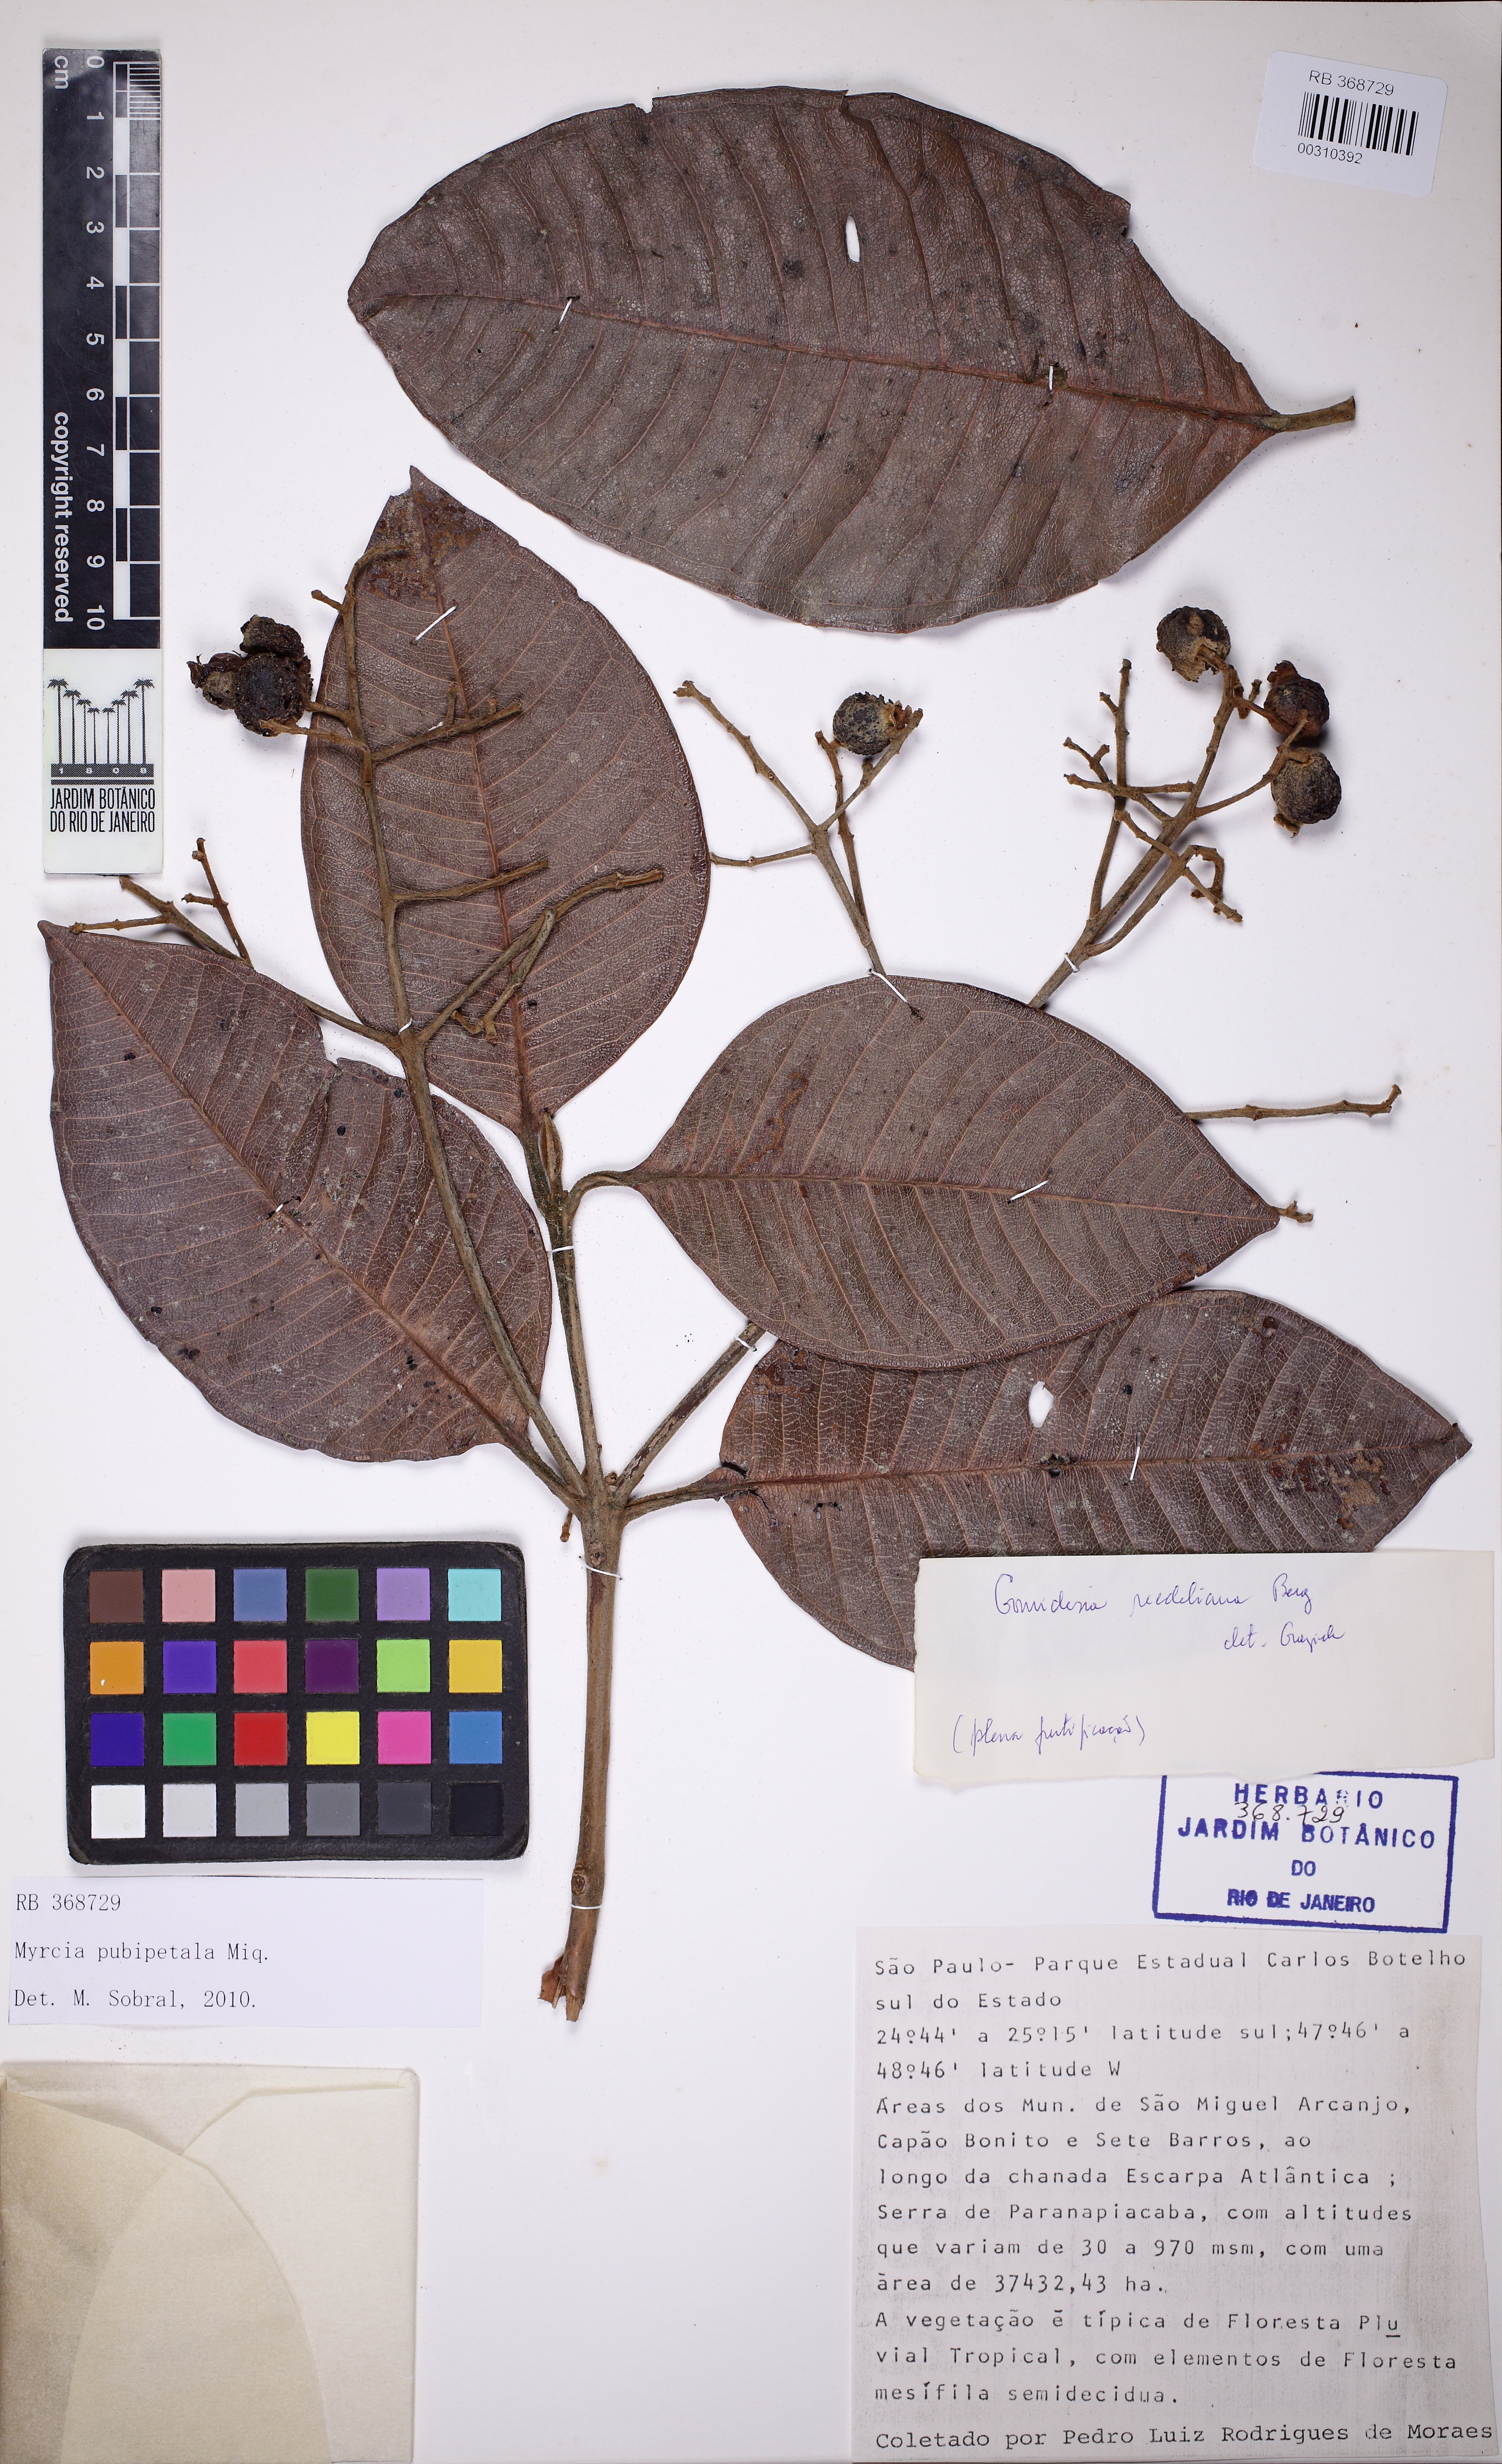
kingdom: Plantae
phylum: Tracheophyta
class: Magnoliopsida
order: Myrtales
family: Myrtaceae
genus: Myrcia
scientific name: Myrcia pubipetala
